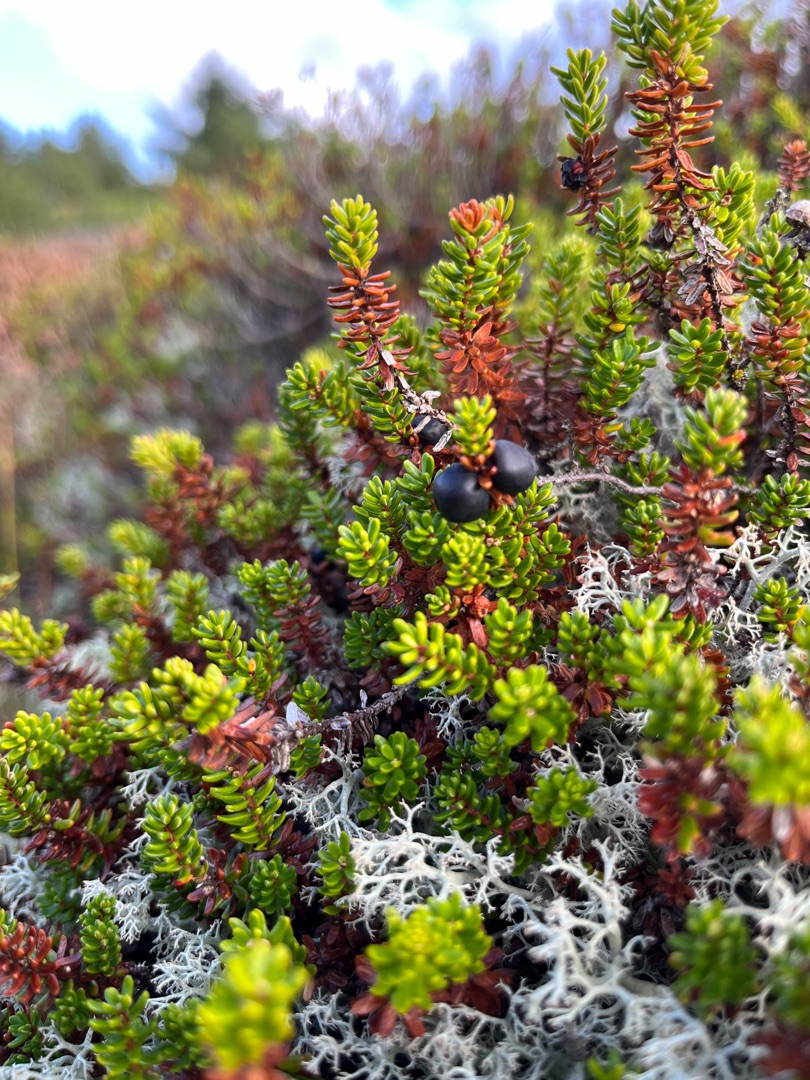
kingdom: Plantae
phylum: Tracheophyta
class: Magnoliopsida
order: Ericales
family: Ericaceae
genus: Empetrum
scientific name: Empetrum nigrum
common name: Revling
